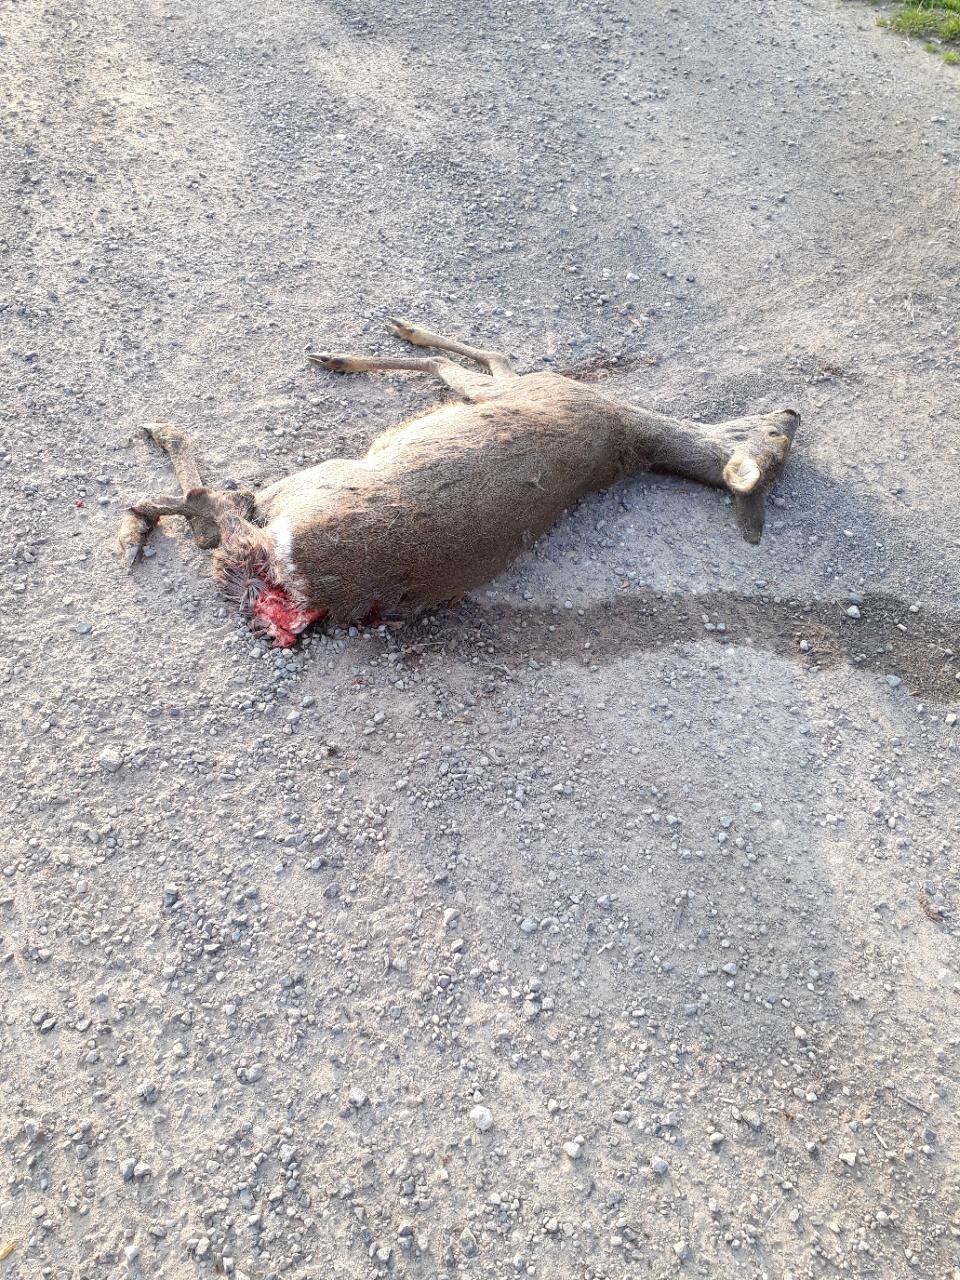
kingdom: Animalia
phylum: Chordata
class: Mammalia
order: Artiodactyla
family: Cervidae
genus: Capreolus
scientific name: Capreolus capreolus
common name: Western roe deer
